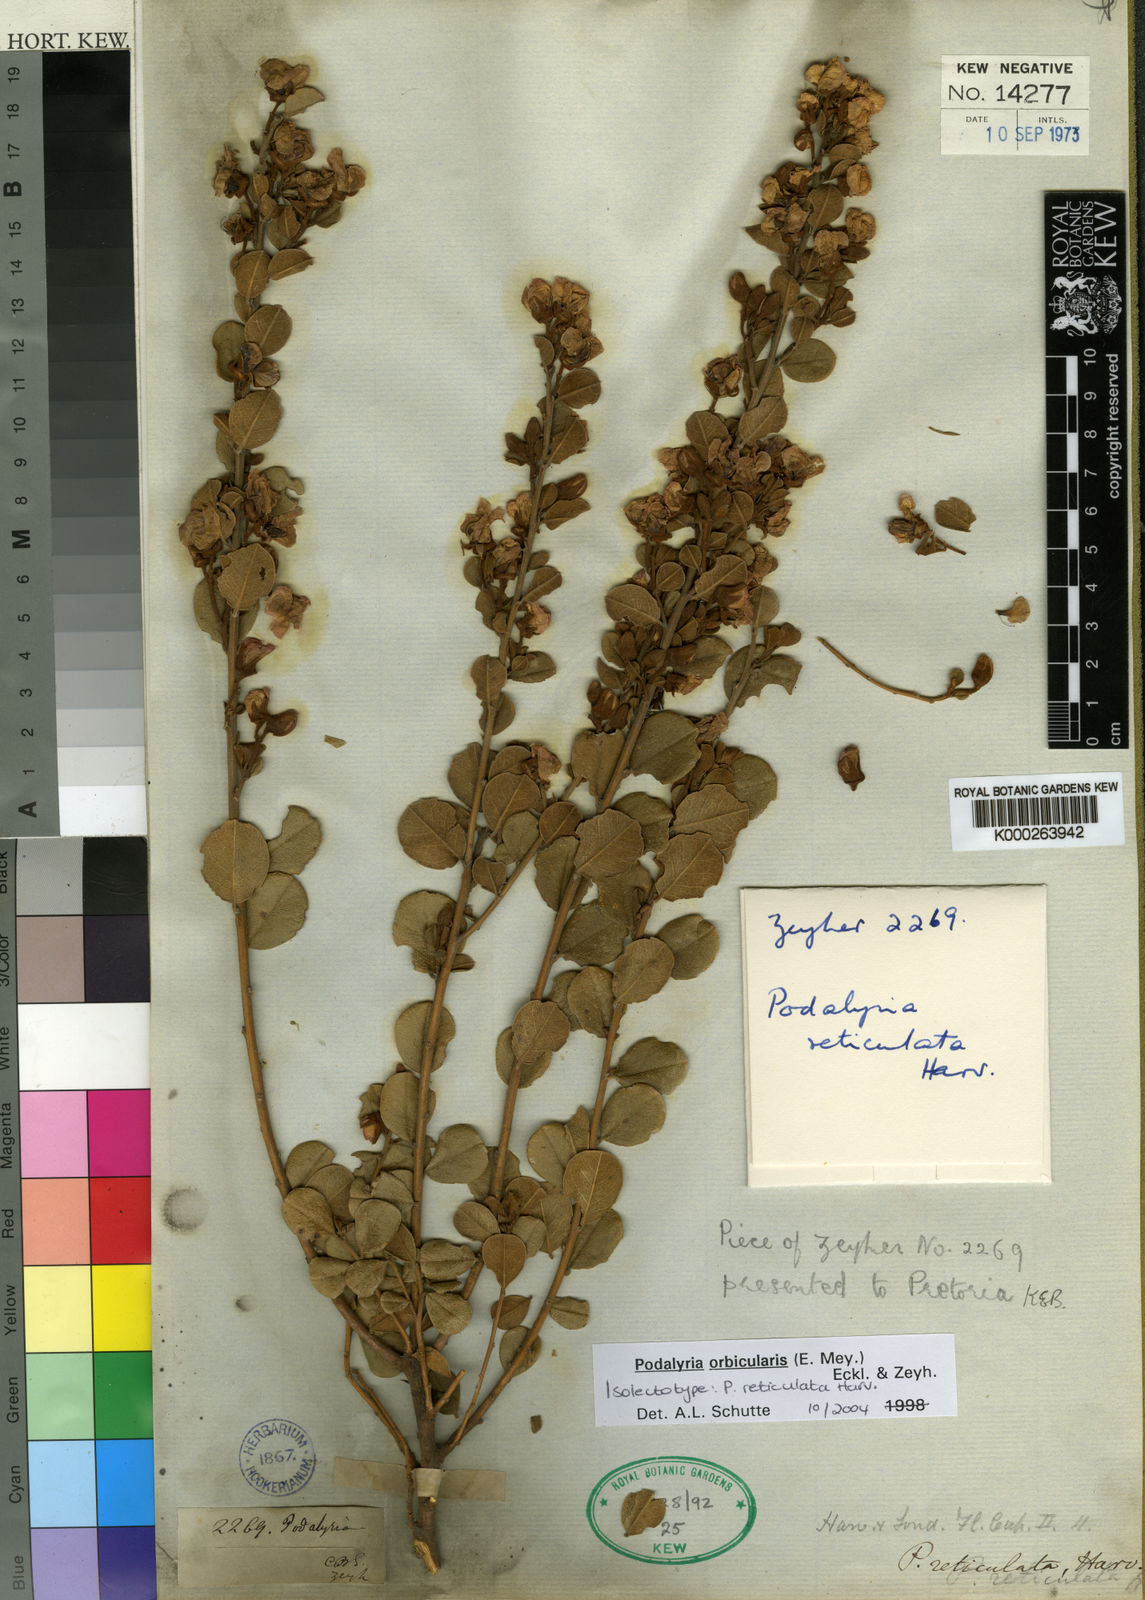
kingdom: Plantae
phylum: Tracheophyta
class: Magnoliopsida
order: Fabales
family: Fabaceae
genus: Podalyria
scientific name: Podalyria orbicularis
